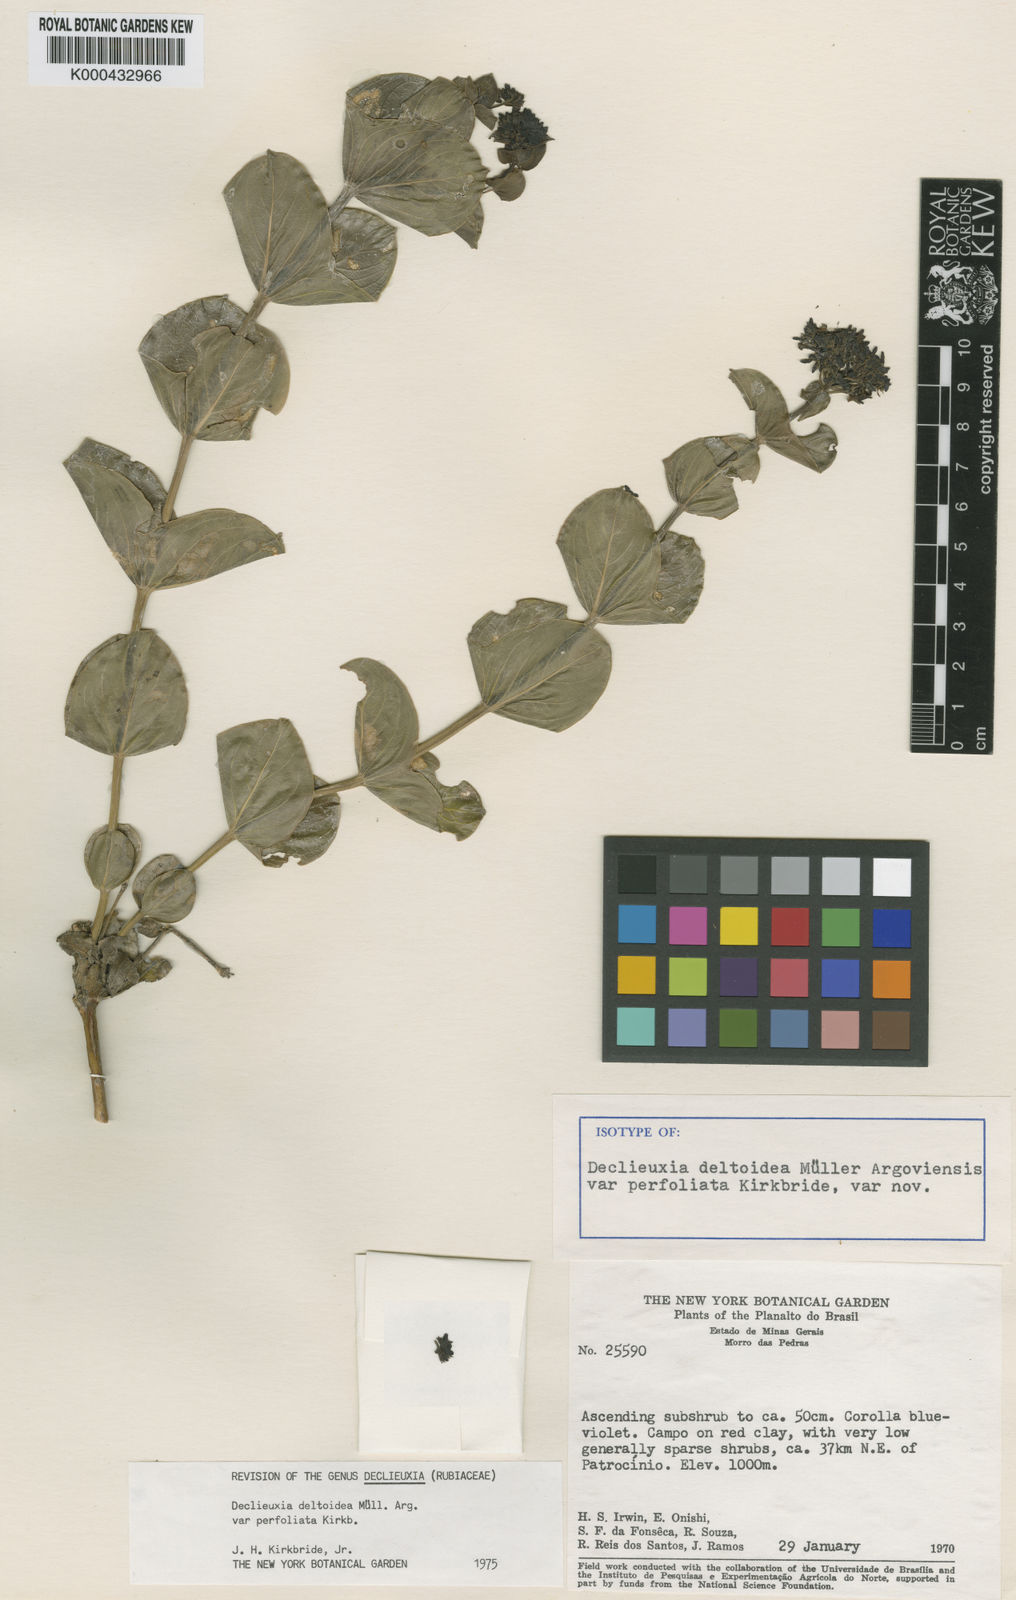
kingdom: Plantae
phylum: Tracheophyta
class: Magnoliopsida
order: Gentianales
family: Rubiaceae
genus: Declieuxia
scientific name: Declieuxia
